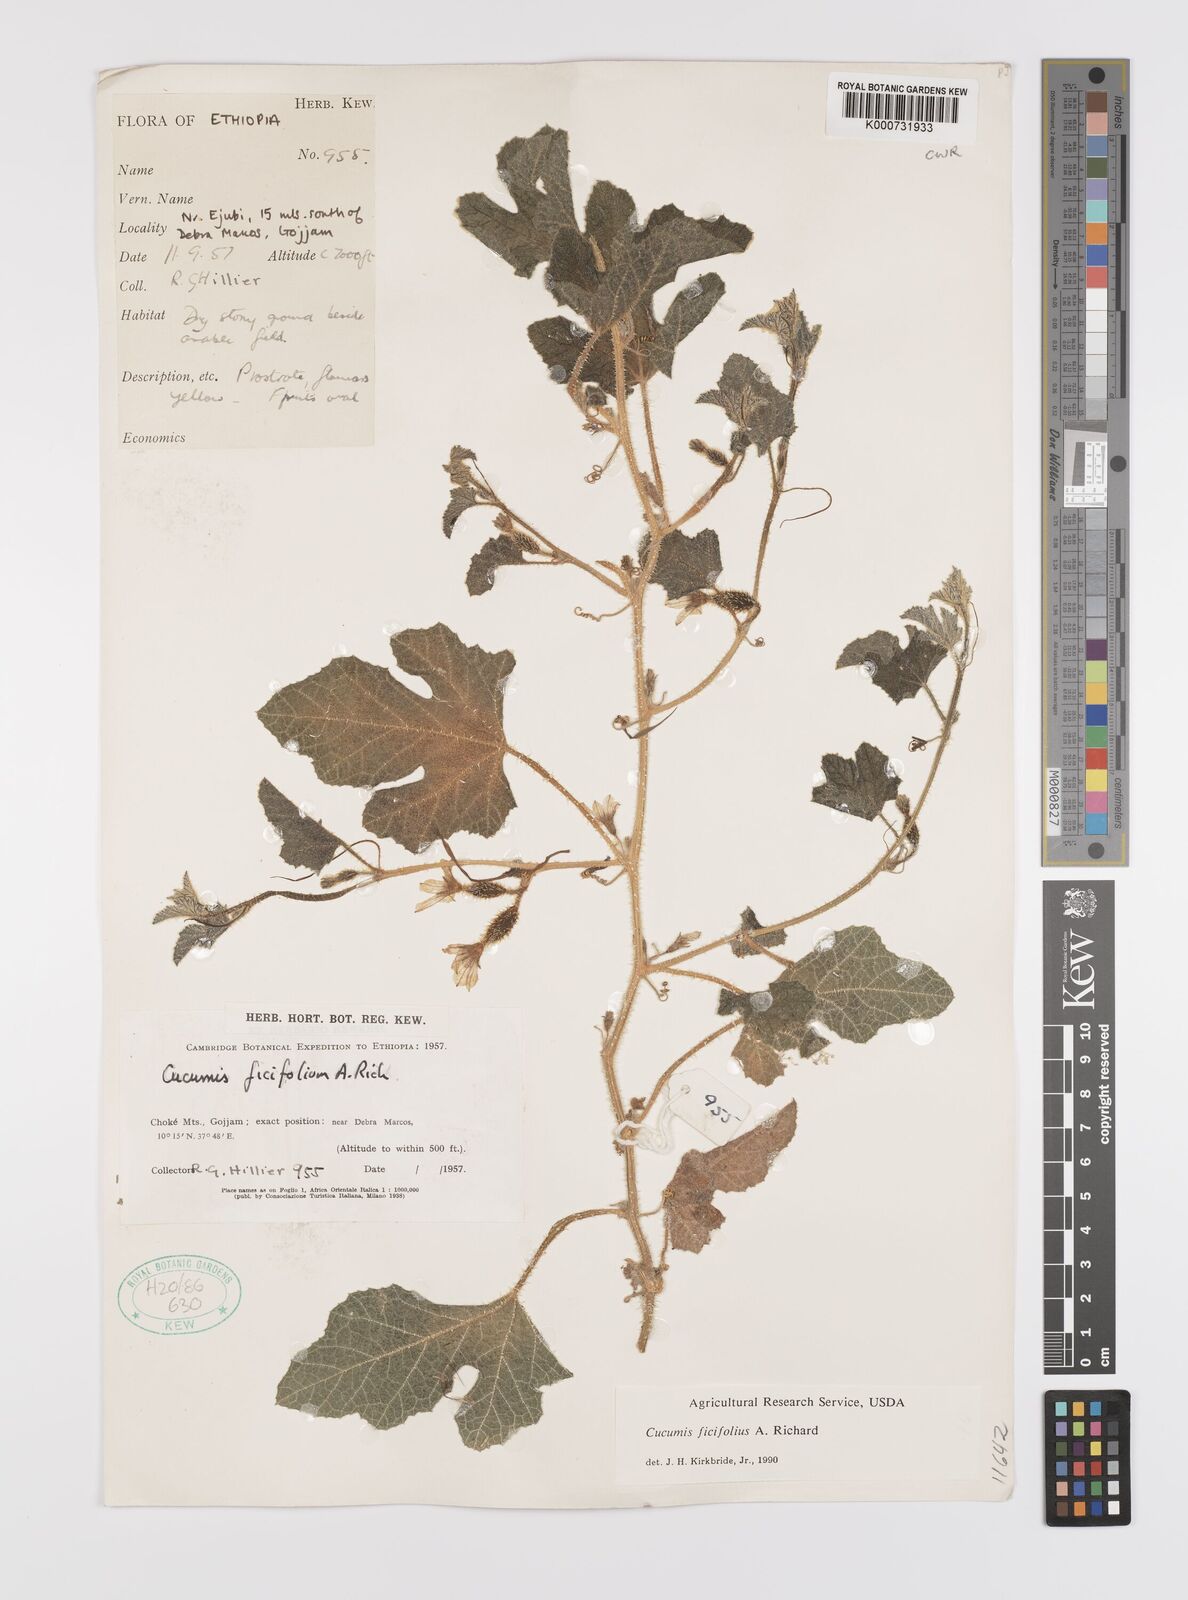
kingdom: Plantae
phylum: Tracheophyta
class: Magnoliopsida
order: Cucurbitales
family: Cucurbitaceae
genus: Cucumis
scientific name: Cucumis ficifolius
